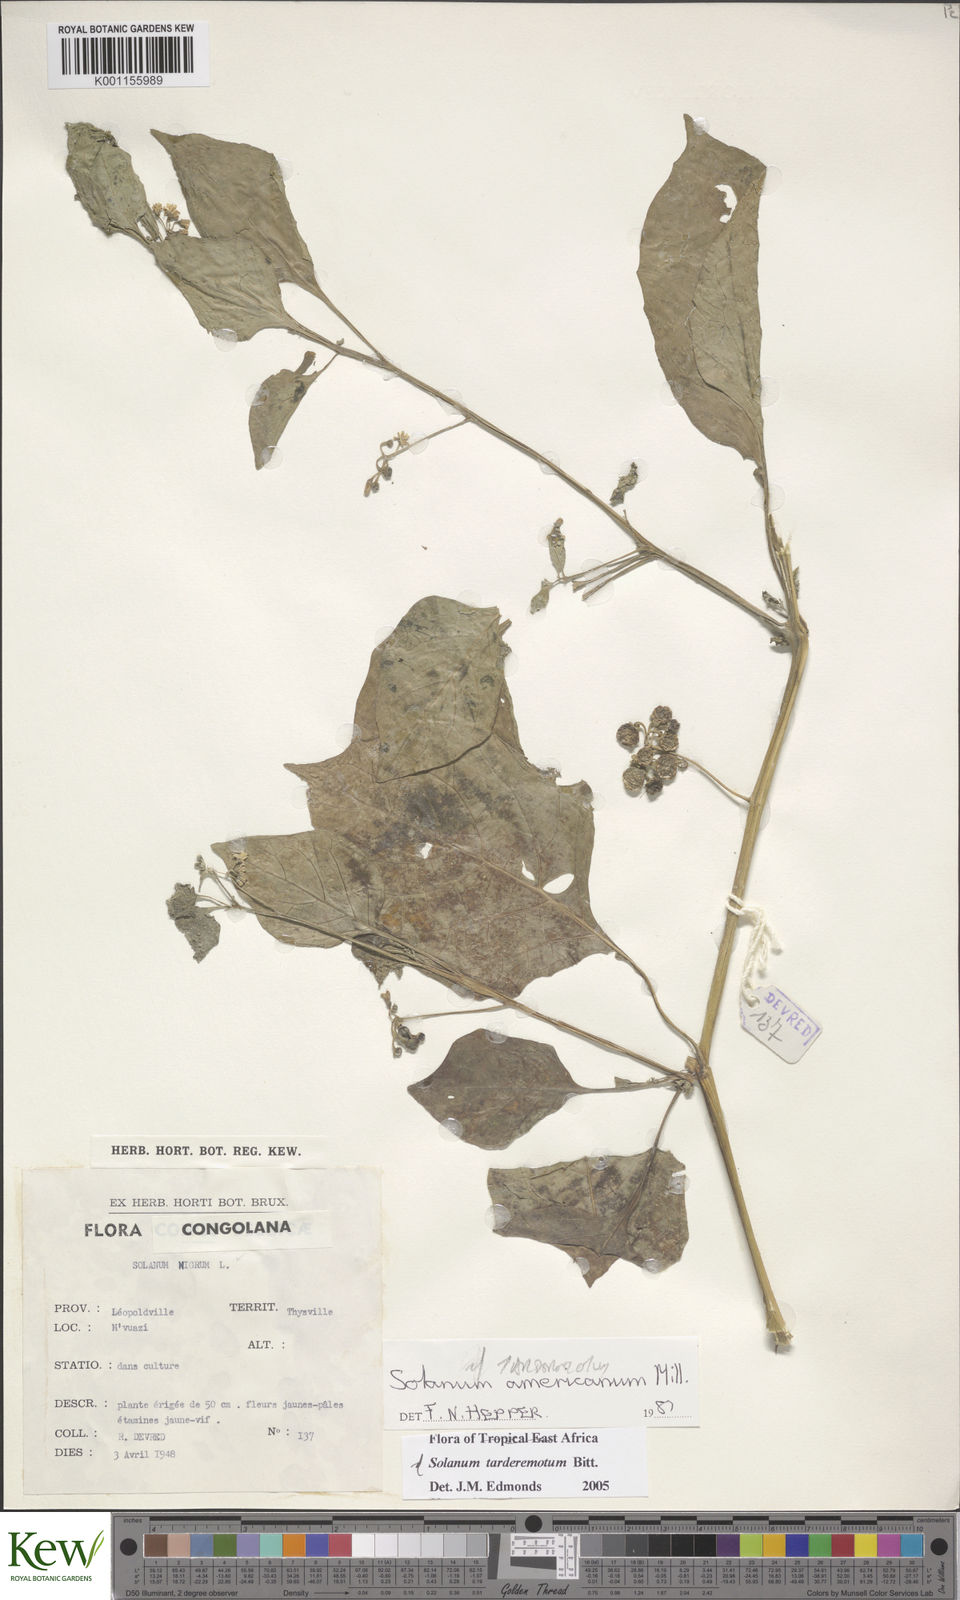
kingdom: Plantae
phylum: Tracheophyta
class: Magnoliopsida
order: Solanales
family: Solanaceae
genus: Solanum
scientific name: Solanum tarderemotum
